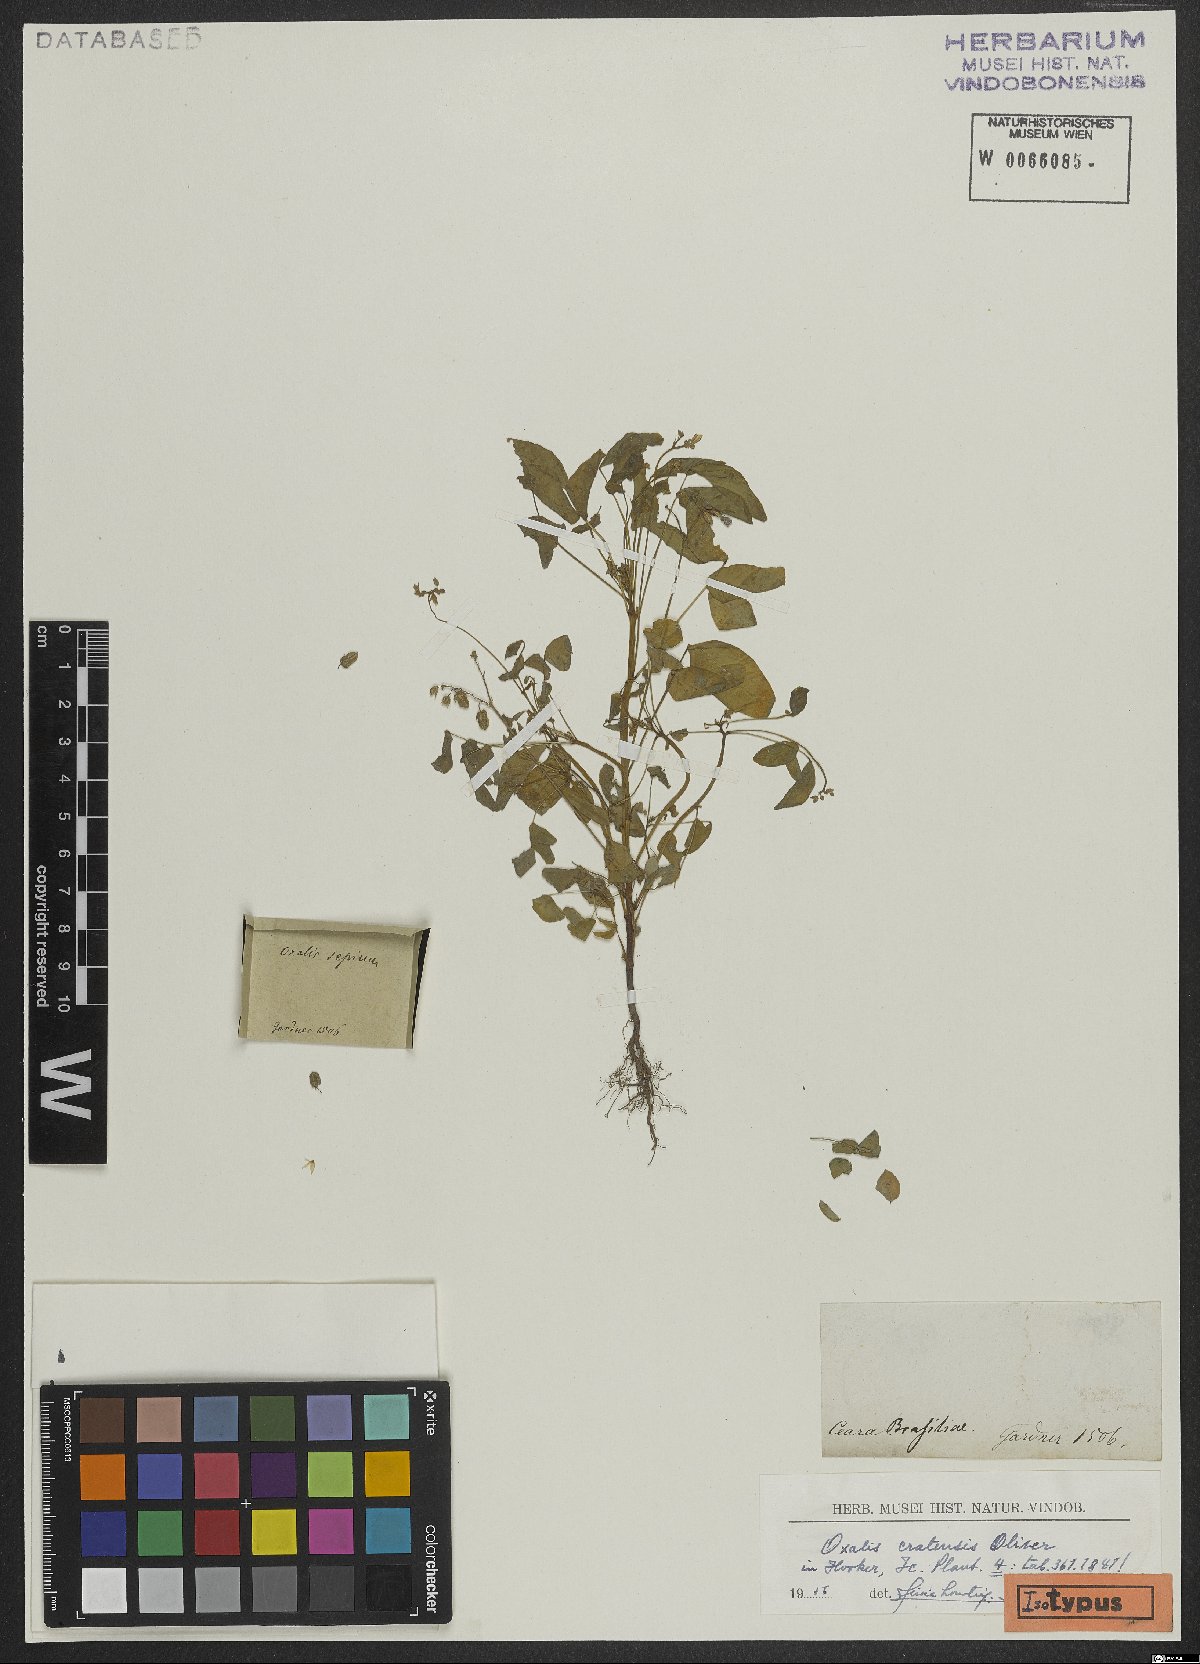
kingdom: Plantae
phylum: Tracheophyta
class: Magnoliopsida
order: Oxalidales
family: Oxalidaceae
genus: Oxalis
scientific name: Oxalis cratensis
